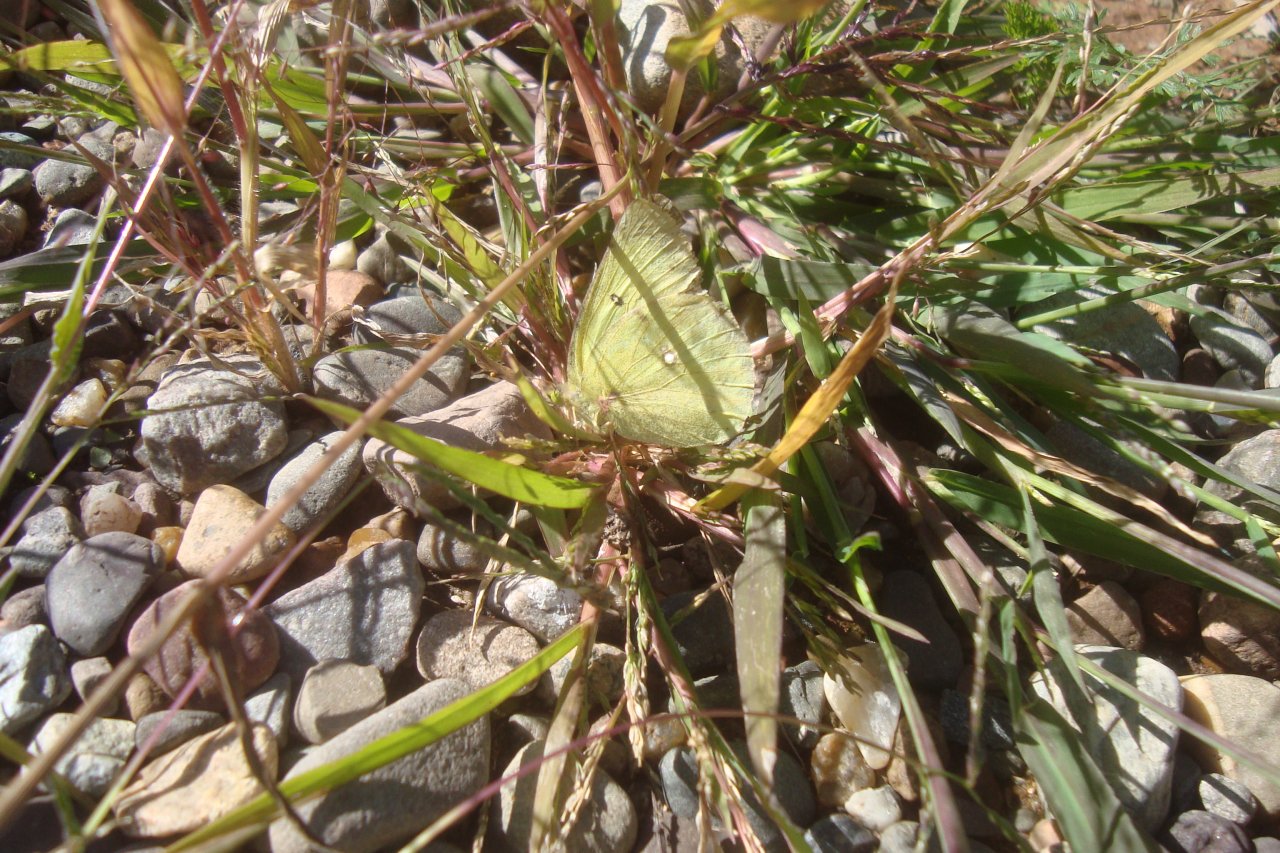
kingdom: Animalia
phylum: Arthropoda
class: Insecta
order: Lepidoptera
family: Pieridae
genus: Colias
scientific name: Colias philodice
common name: Clouded Sulphur
